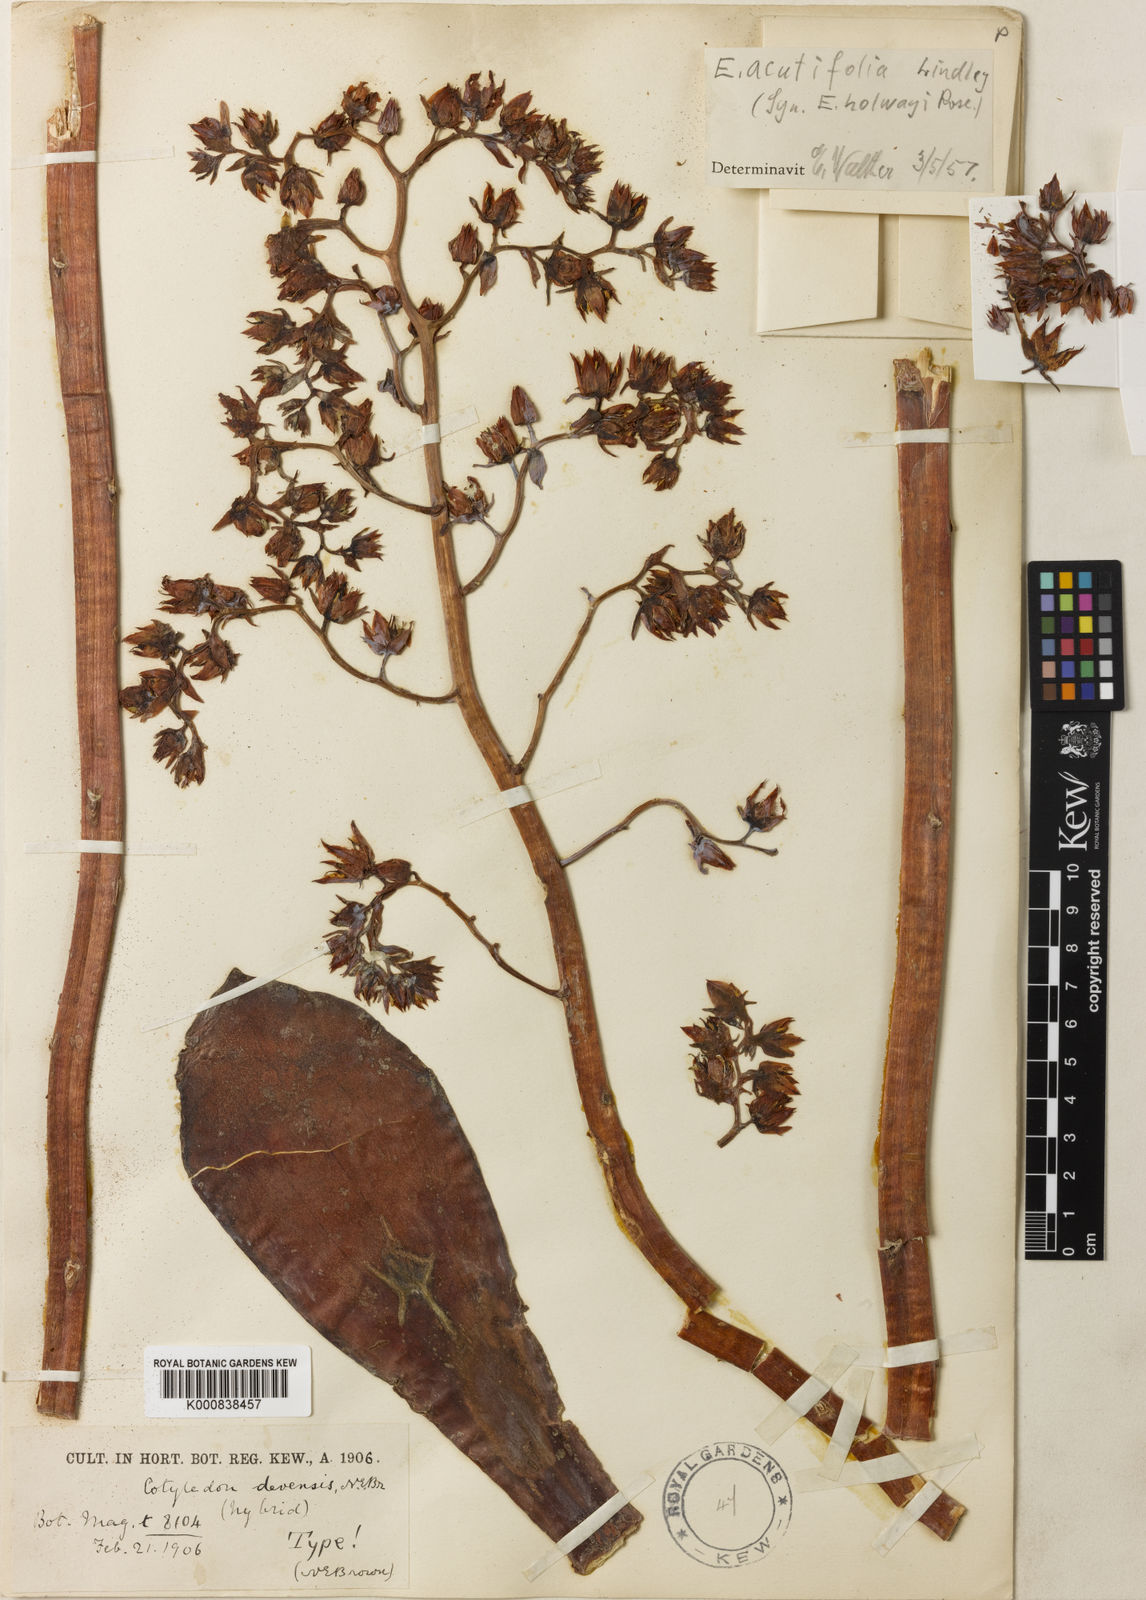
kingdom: Plantae
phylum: Tracheophyta
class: Magnoliopsida
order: Saxifragales
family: Crassulaceae
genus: Echeveria
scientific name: Echeveria acutifolia
